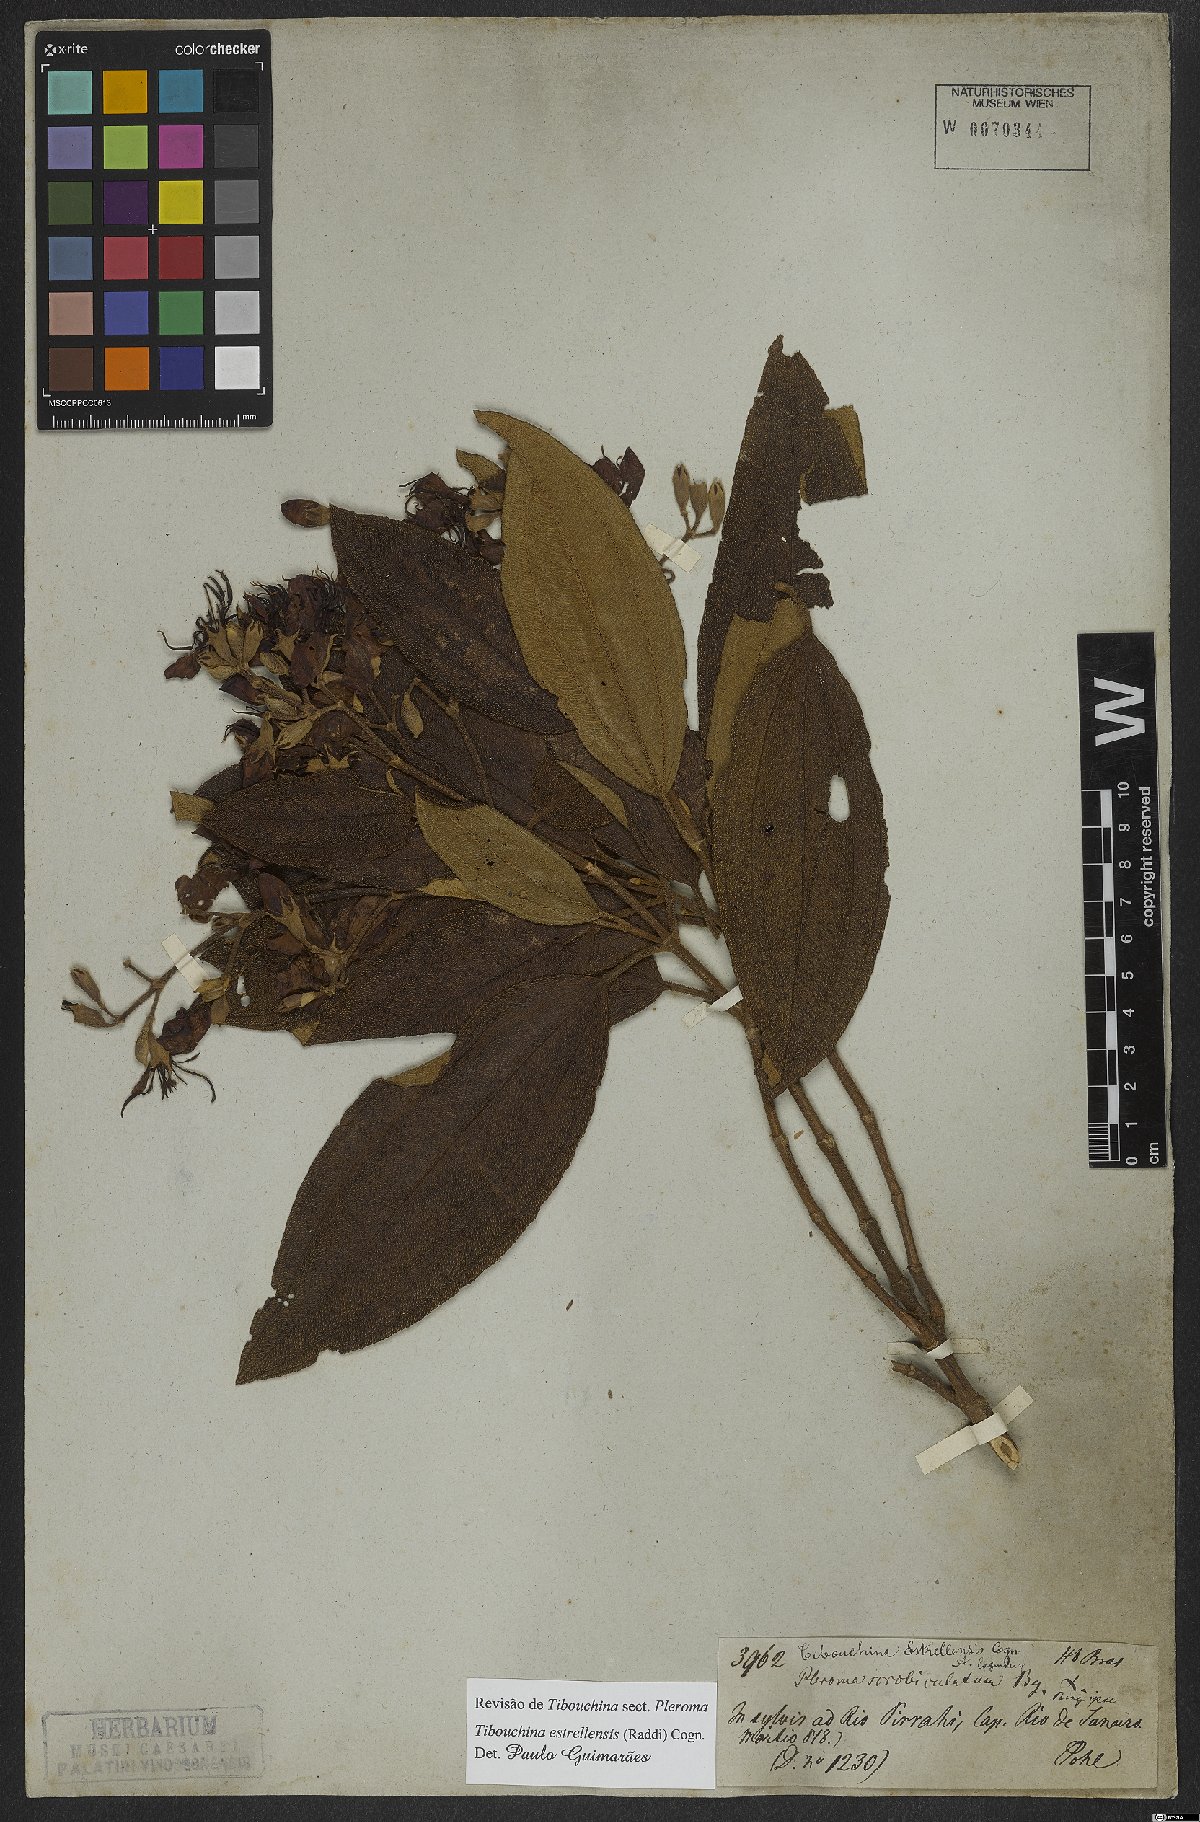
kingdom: Plantae
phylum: Tracheophyta
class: Magnoliopsida
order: Myrtales
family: Melastomataceae
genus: Pleroma
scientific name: Pleroma estrellense
